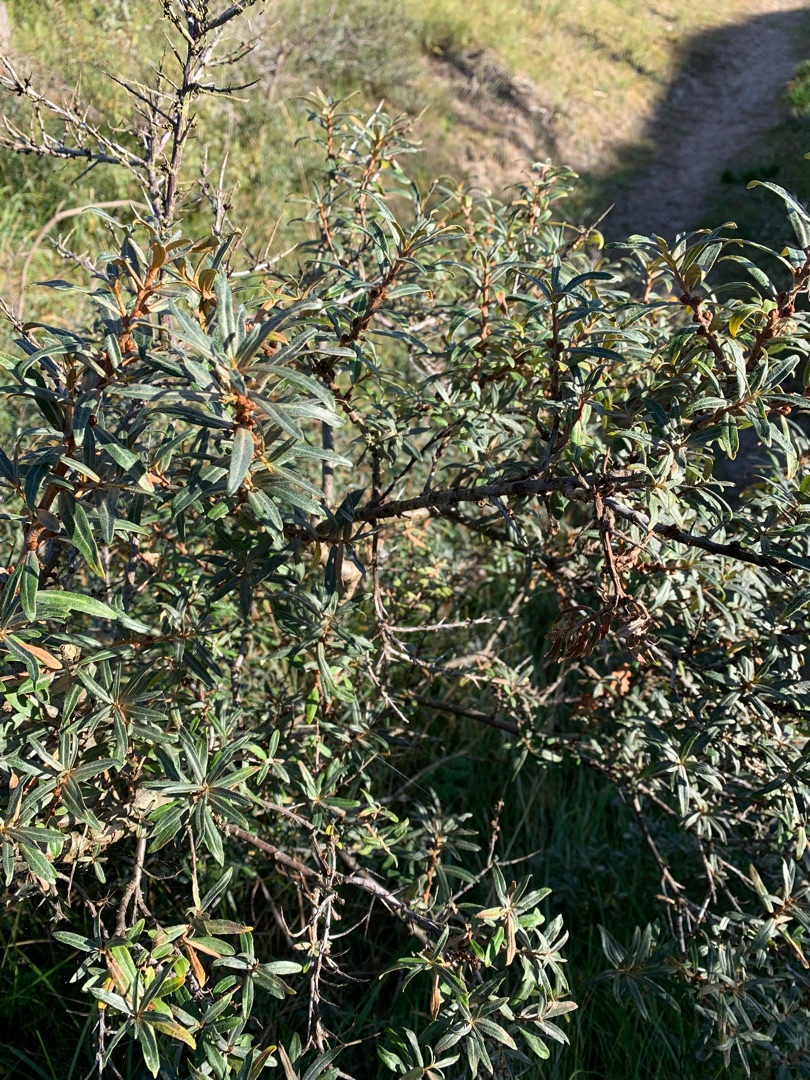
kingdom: Plantae
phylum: Tracheophyta
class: Magnoliopsida
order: Rosales
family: Elaeagnaceae
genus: Hippophae
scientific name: Hippophae rhamnoides
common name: Havtorn
